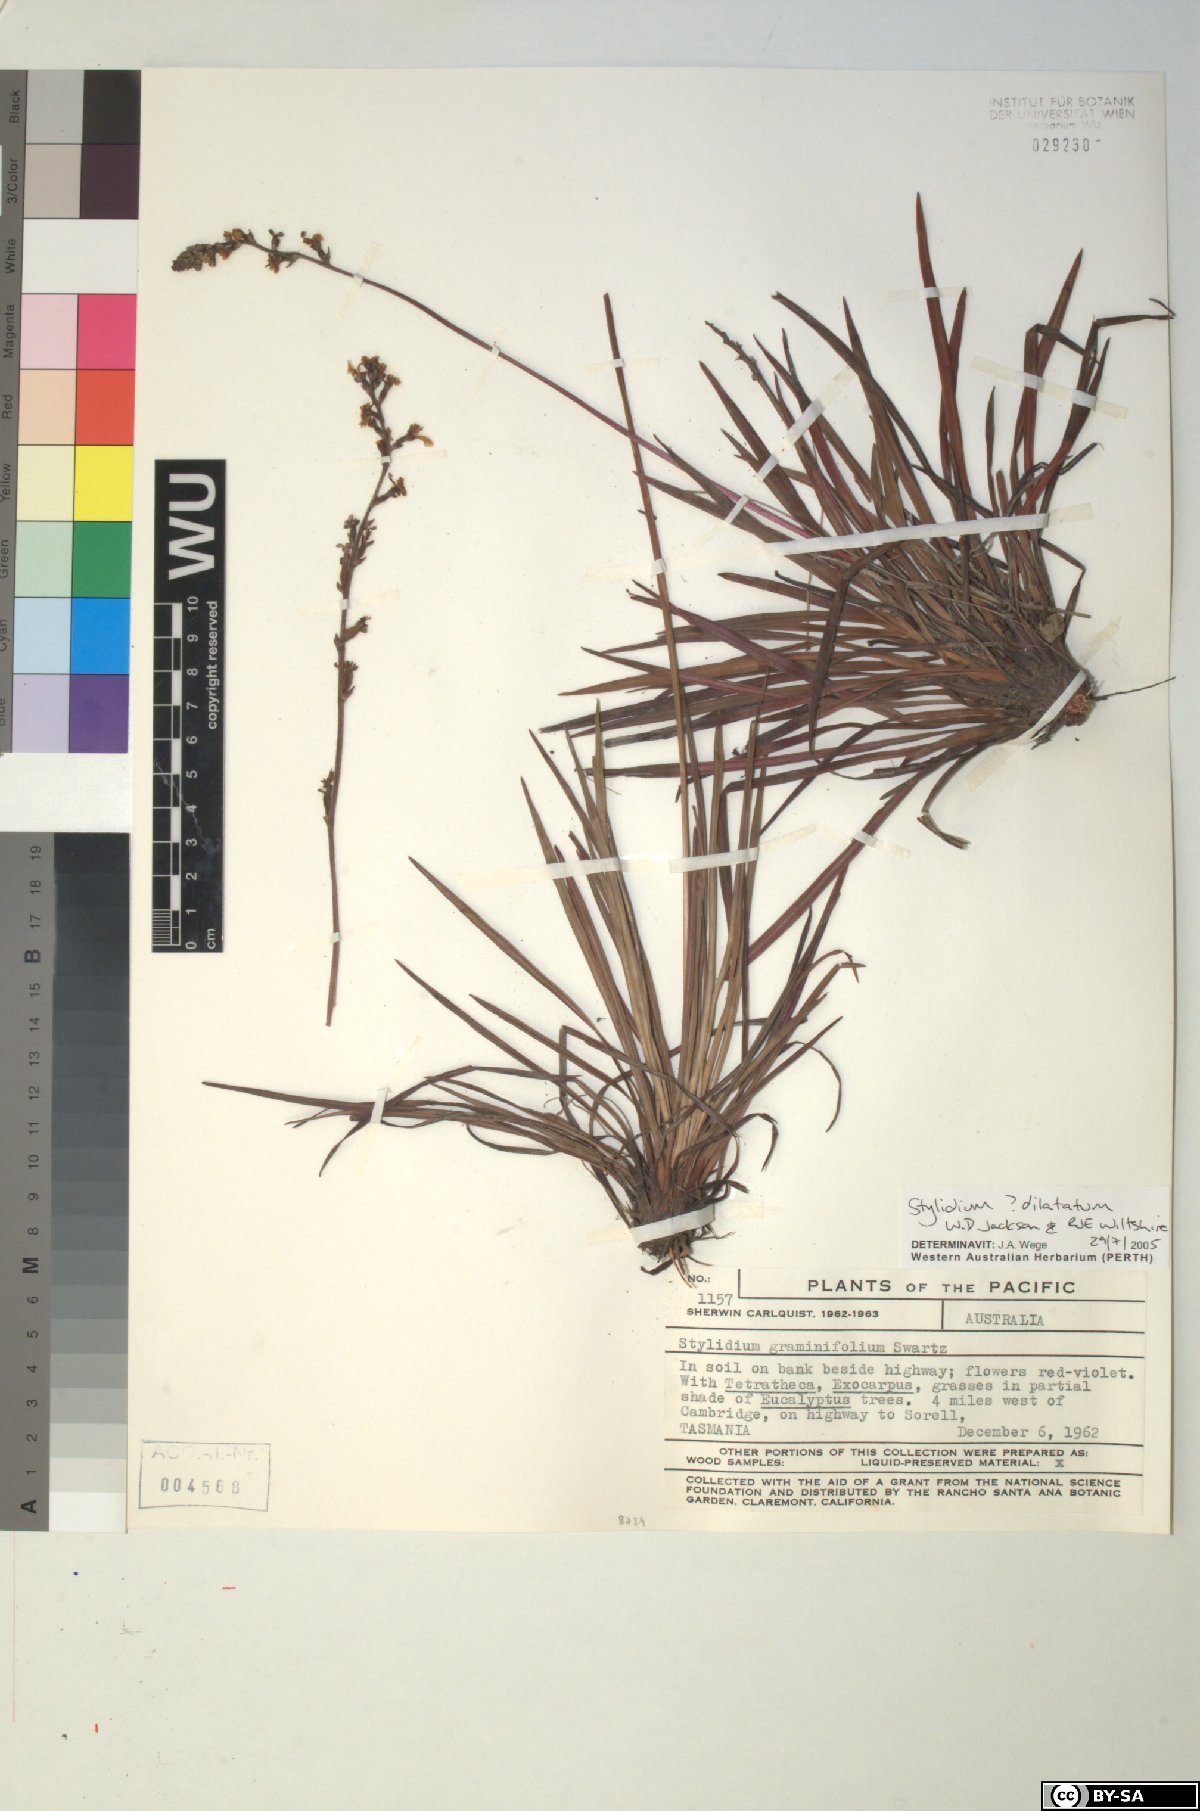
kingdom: Plantae
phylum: Tracheophyta
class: Magnoliopsida
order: Asterales
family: Stylidiaceae
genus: Stylidium
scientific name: Stylidium armeria
